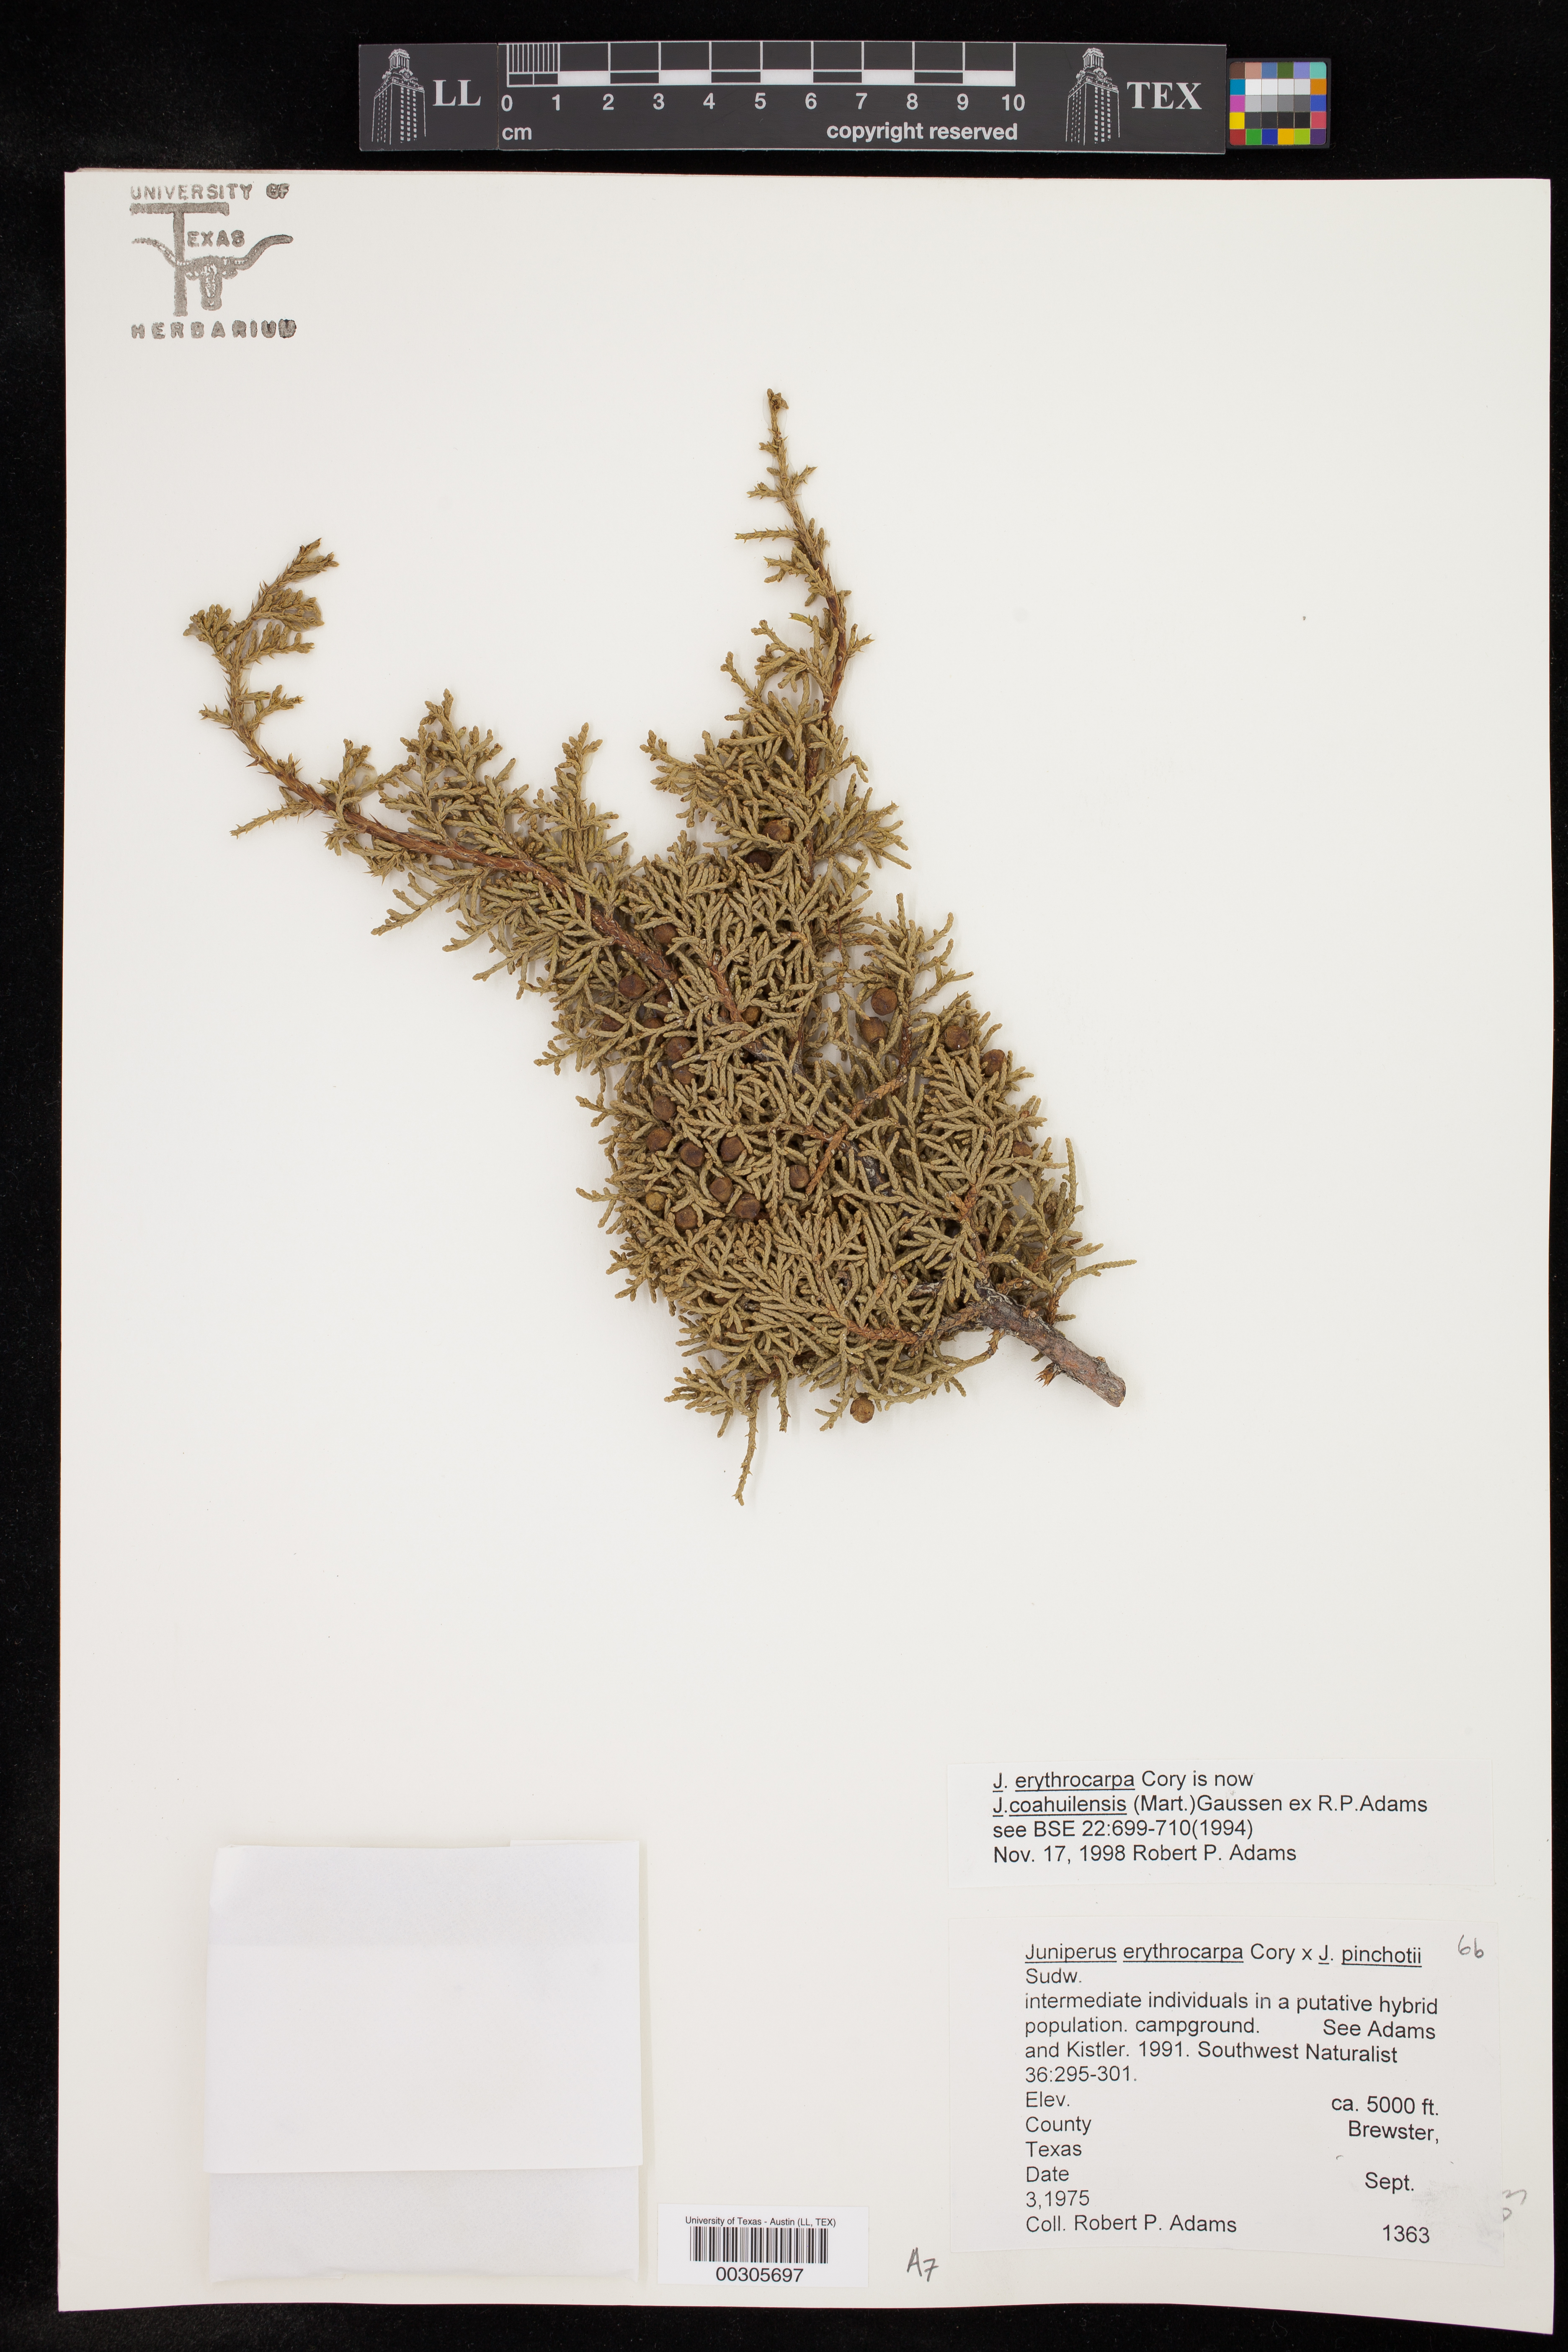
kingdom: Plantae
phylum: Tracheophyta
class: Pinopsida
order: Pinales
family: Cupressaceae
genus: Juniperus
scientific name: Juniperus coahuilensis
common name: Roseberry
